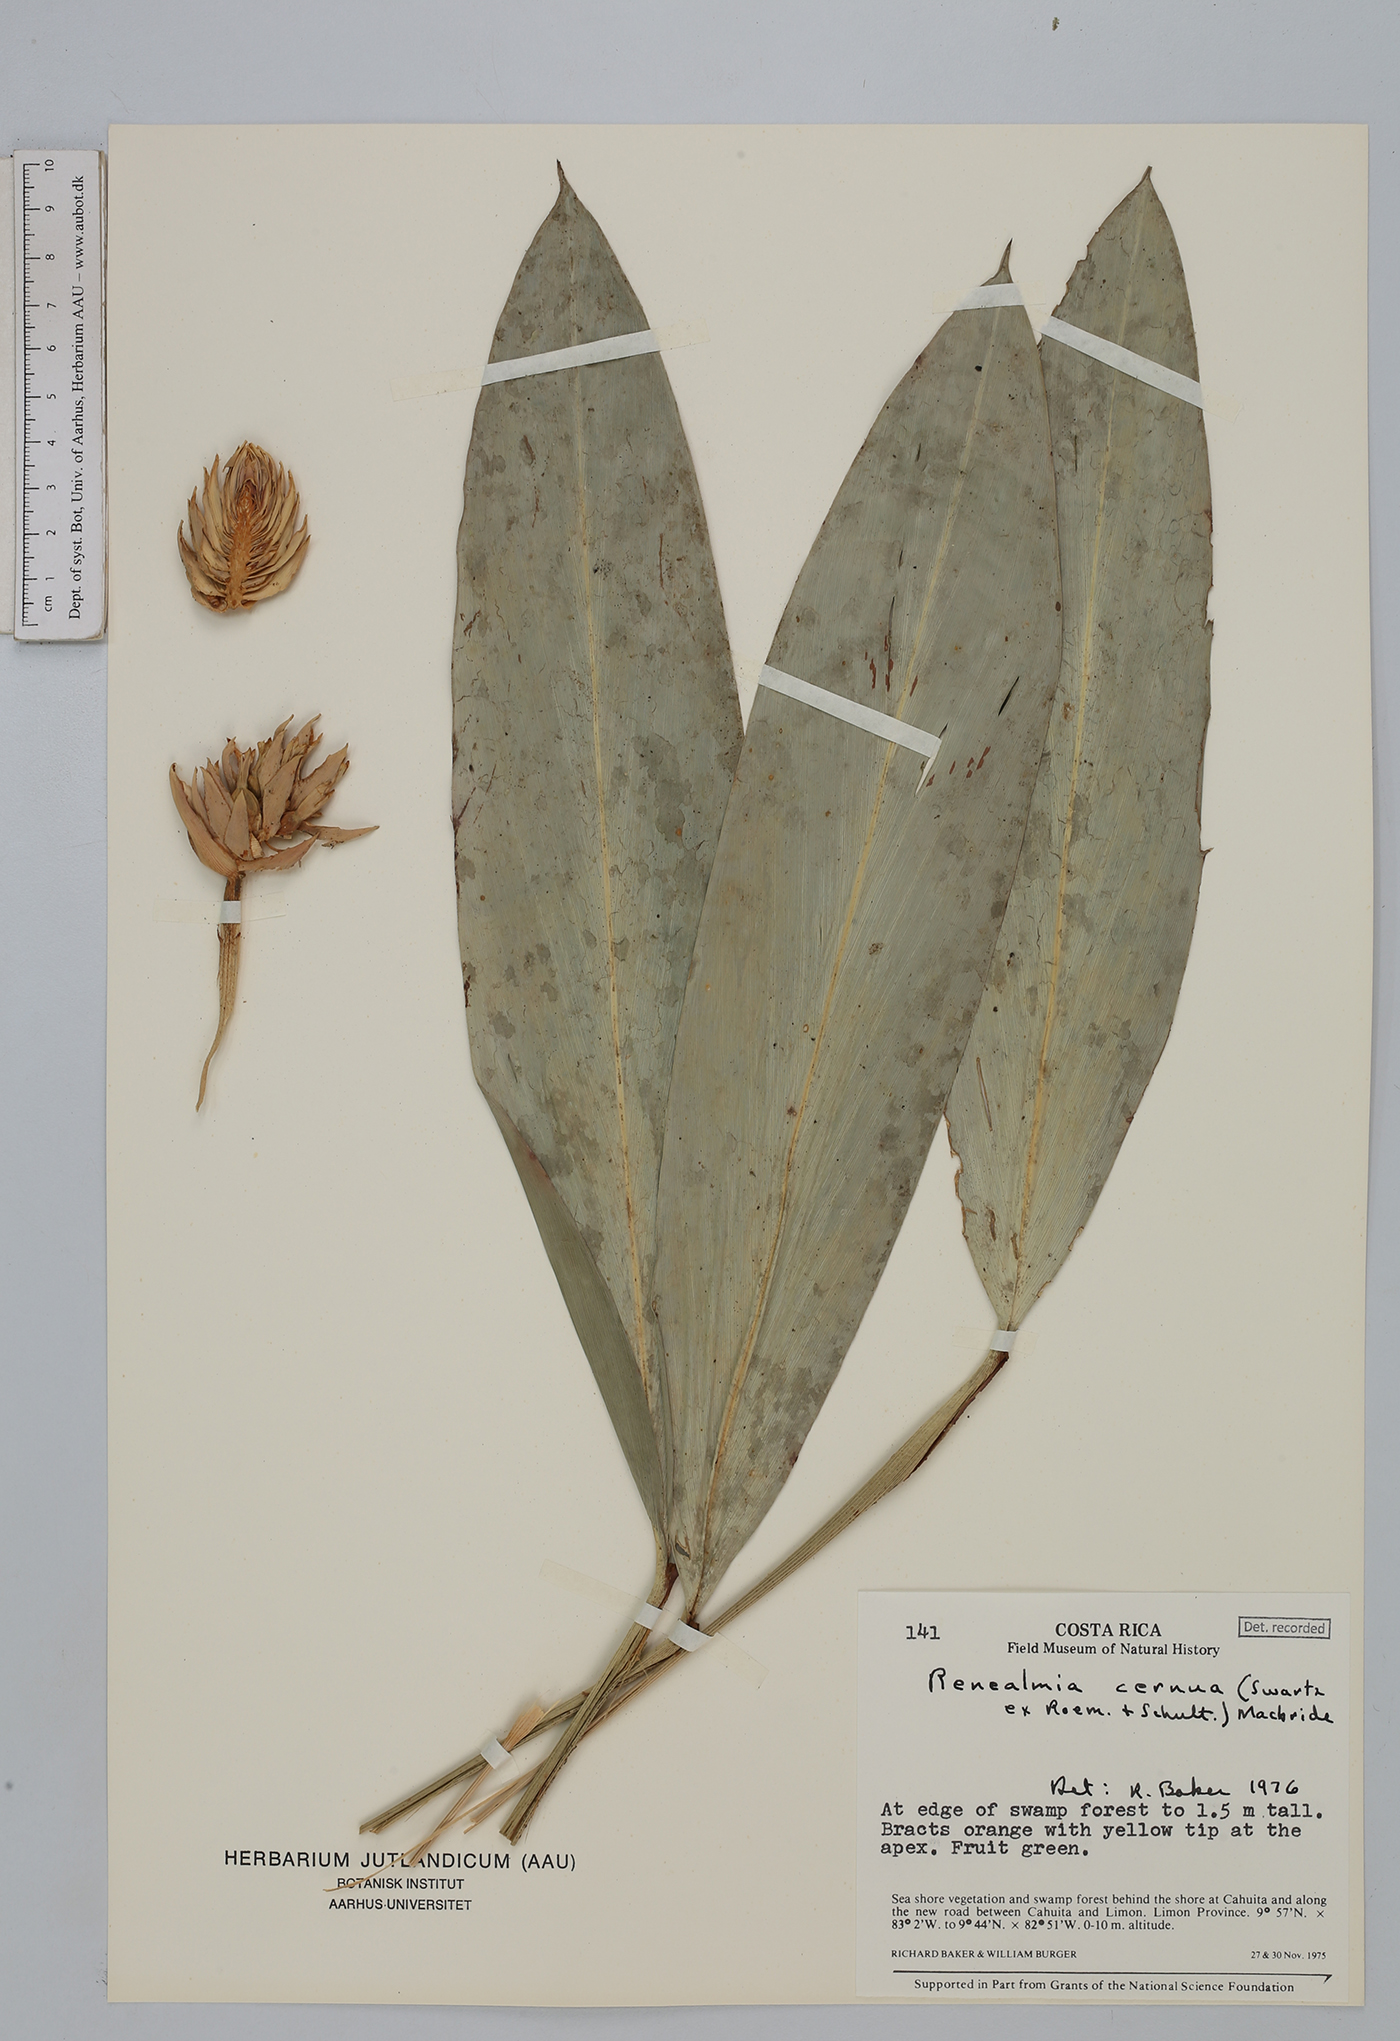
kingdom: Plantae
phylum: Tracheophyta
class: Liliopsida
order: Zingiberales
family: Zingiberaceae
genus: Renealmia
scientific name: Renealmia cernua
